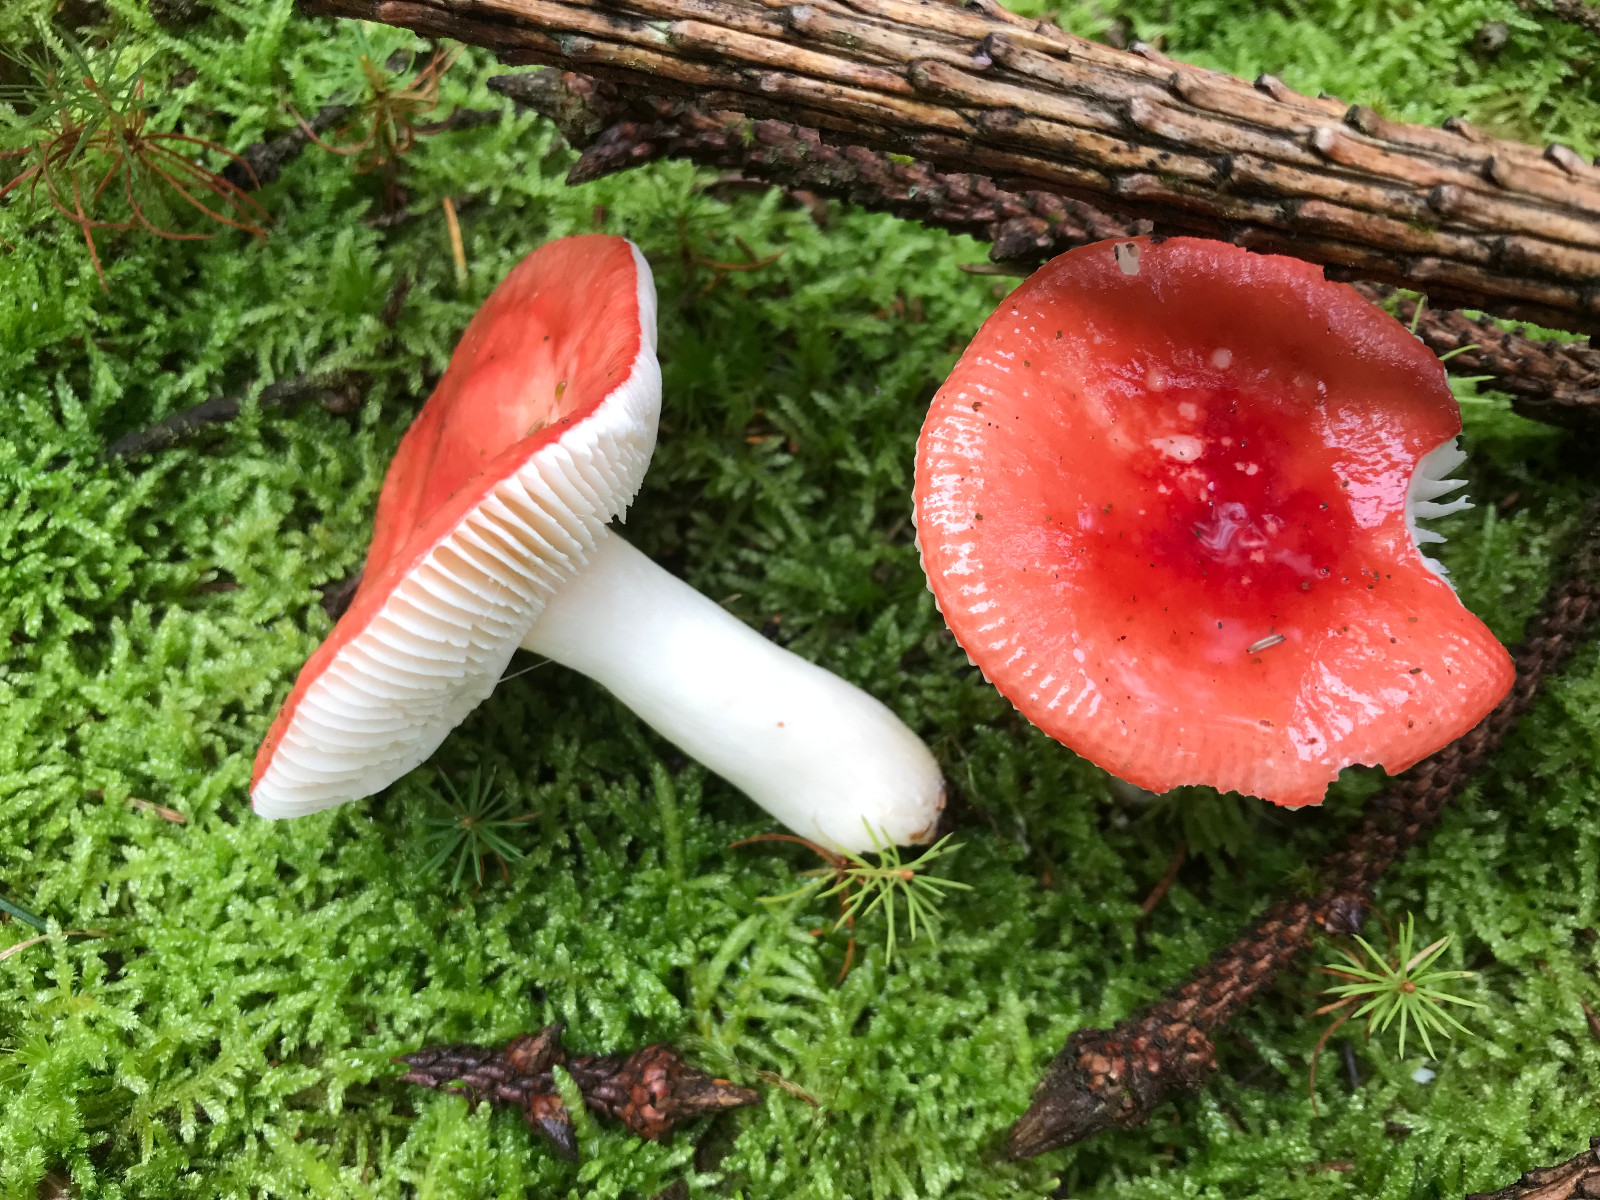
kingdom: Fungi
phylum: Basidiomycota
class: Agaricomycetes
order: Russulales
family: Russulaceae
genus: Russula
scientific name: Russula emetica
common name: stor gift-skørhat
